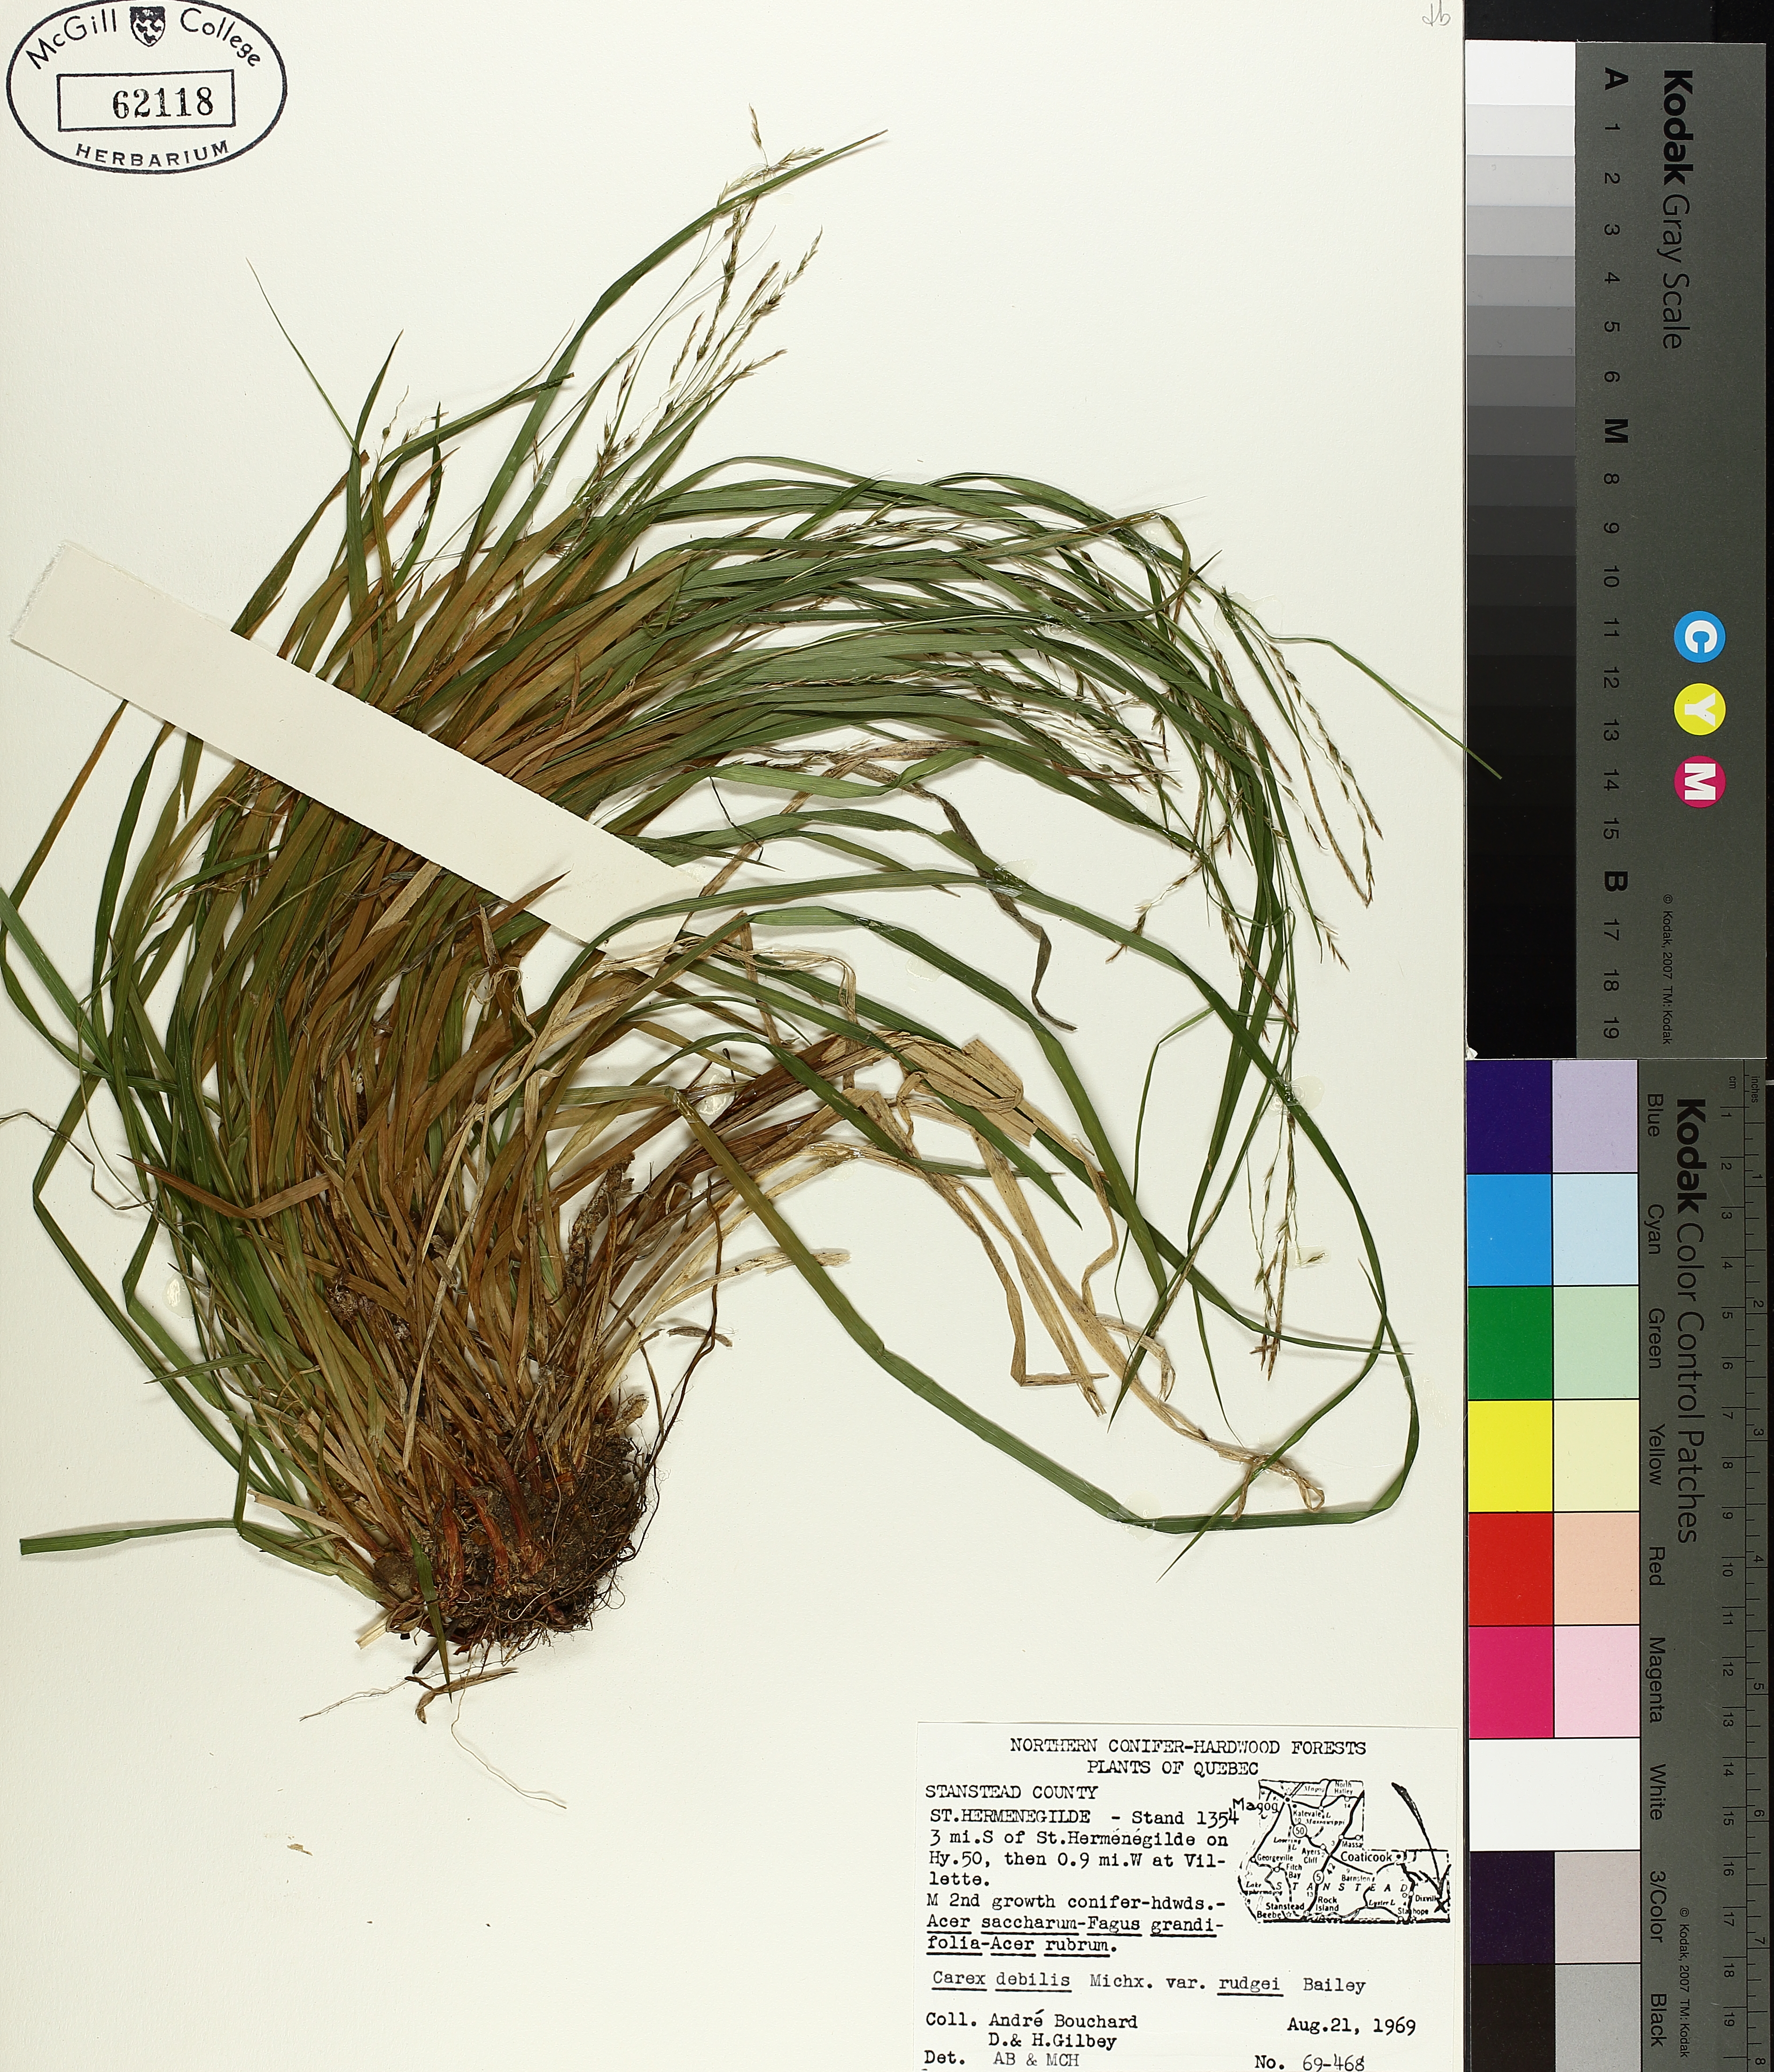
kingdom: Plantae
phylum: Tracheophyta
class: Liliopsida
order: Poales
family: Cyperaceae
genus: Carex
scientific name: Carex debilis
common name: White-edge sedge
